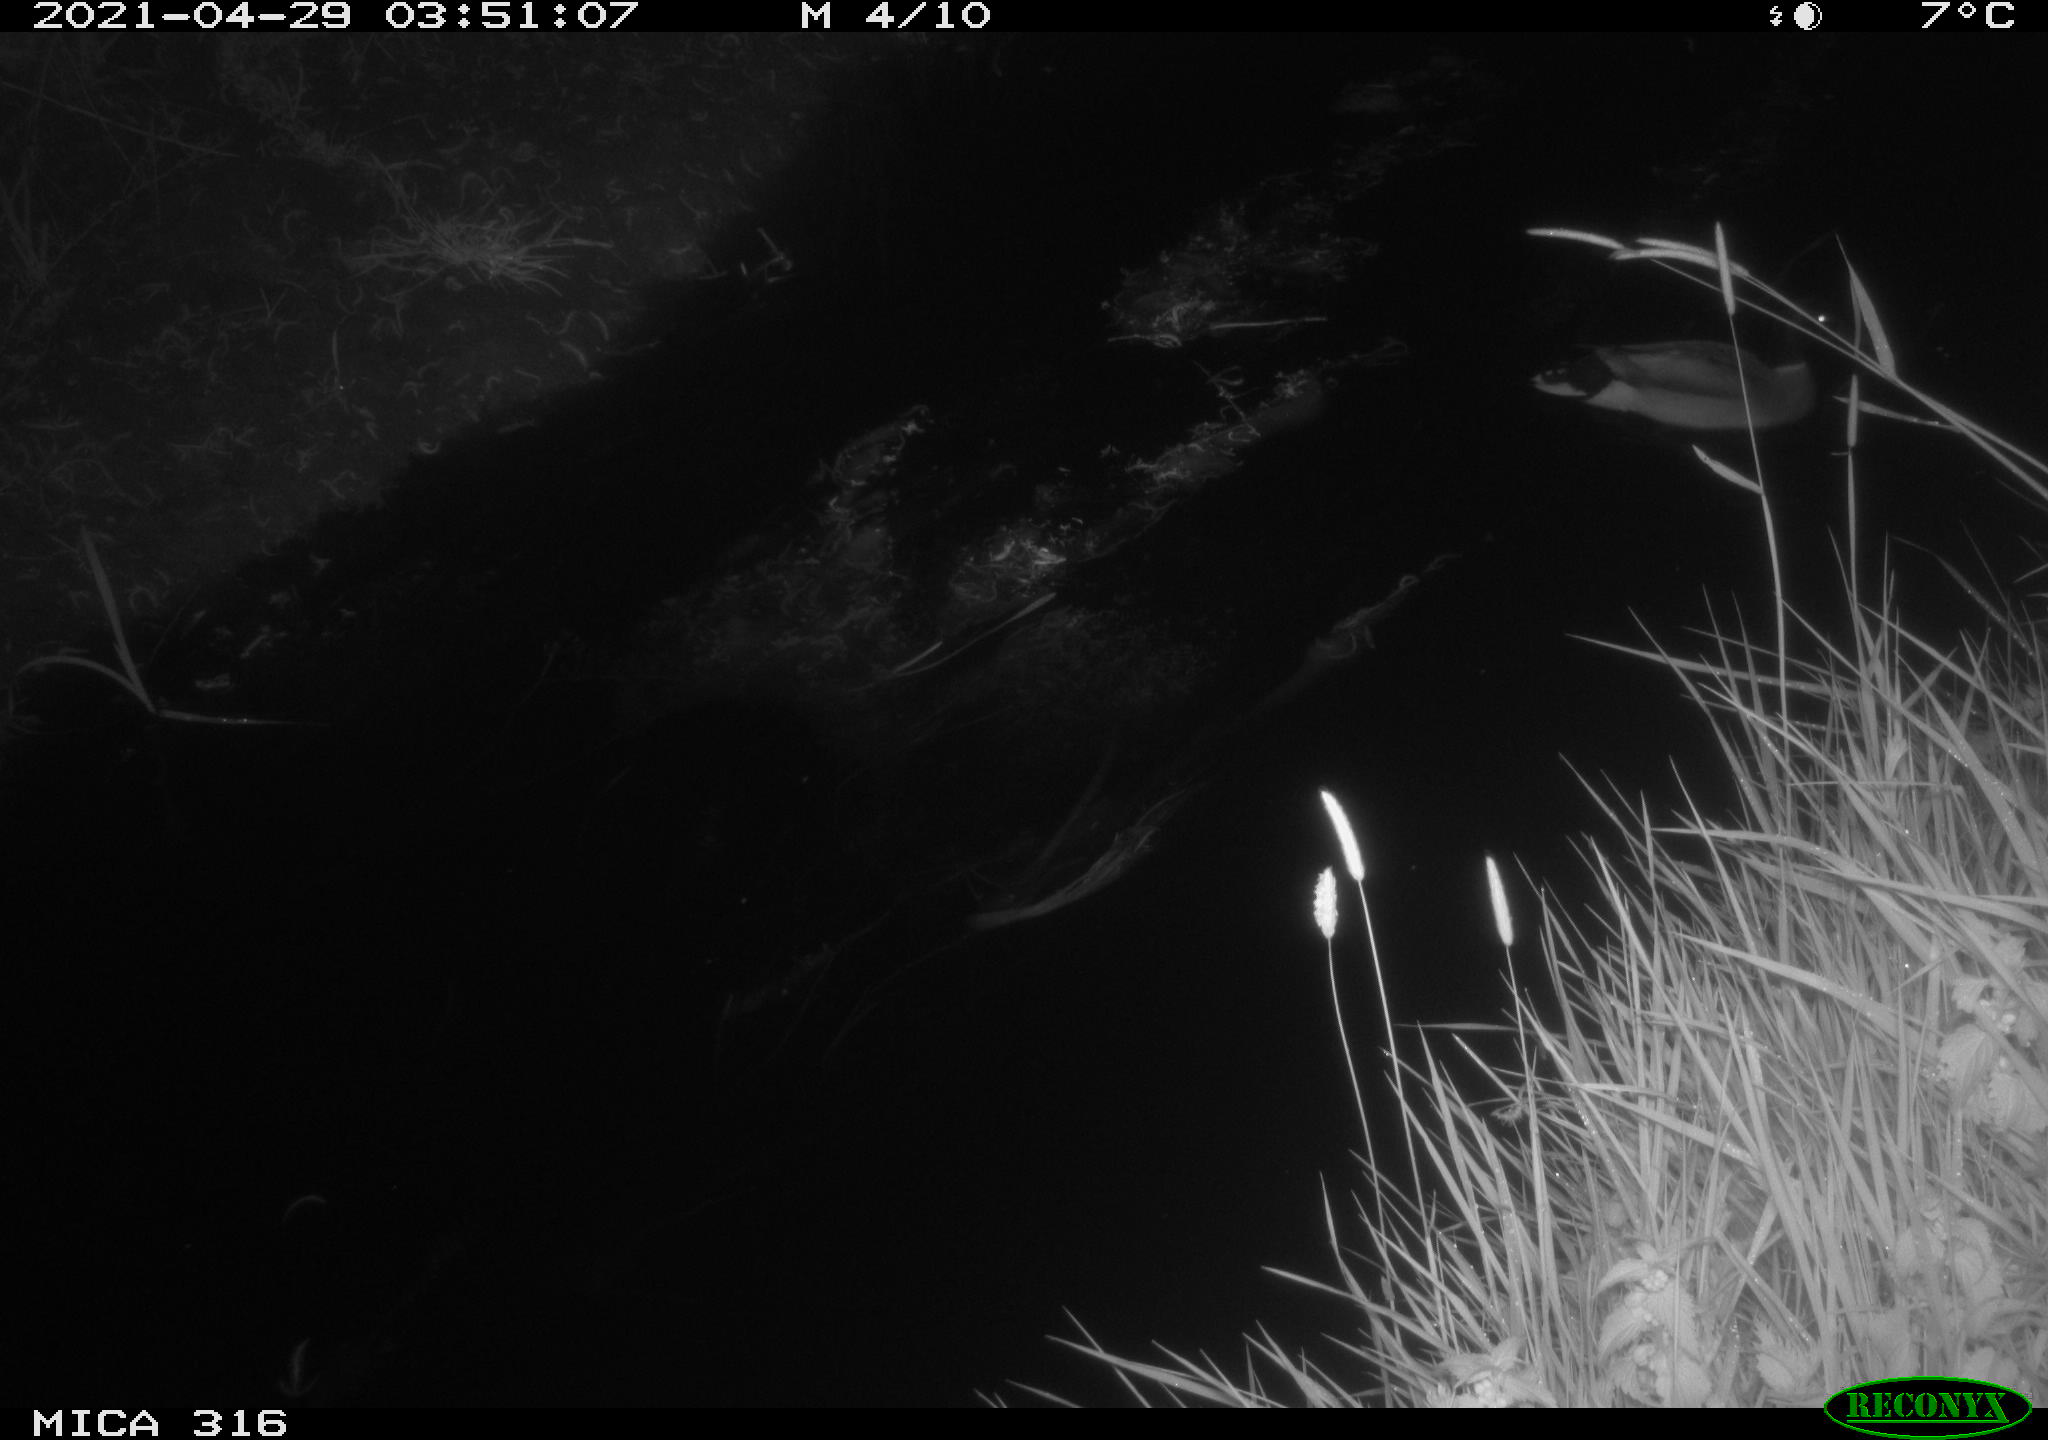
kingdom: Animalia
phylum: Chordata
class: Aves
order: Anseriformes
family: Anatidae
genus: Anas
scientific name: Anas platyrhynchos
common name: Mallard
